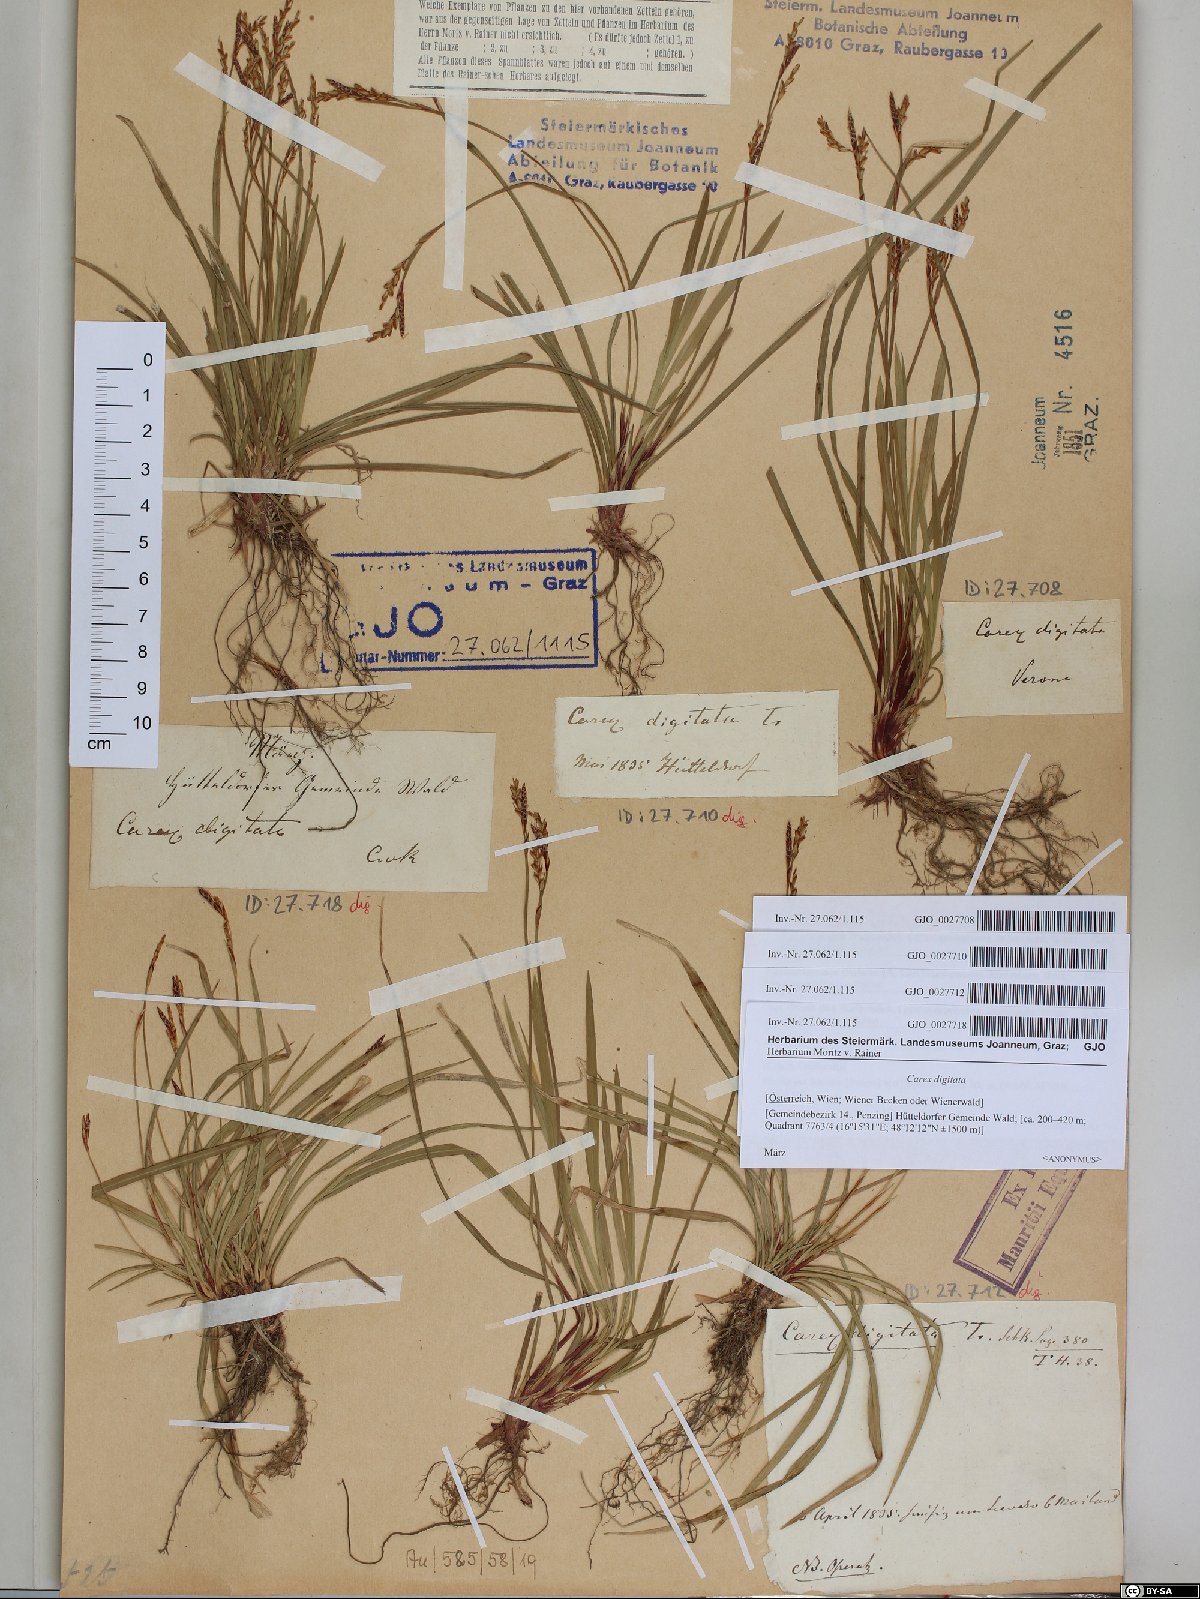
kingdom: Plantae
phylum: Tracheophyta
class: Liliopsida
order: Poales
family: Cyperaceae
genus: Carex
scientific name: Carex digitata
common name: Fingered sedge
